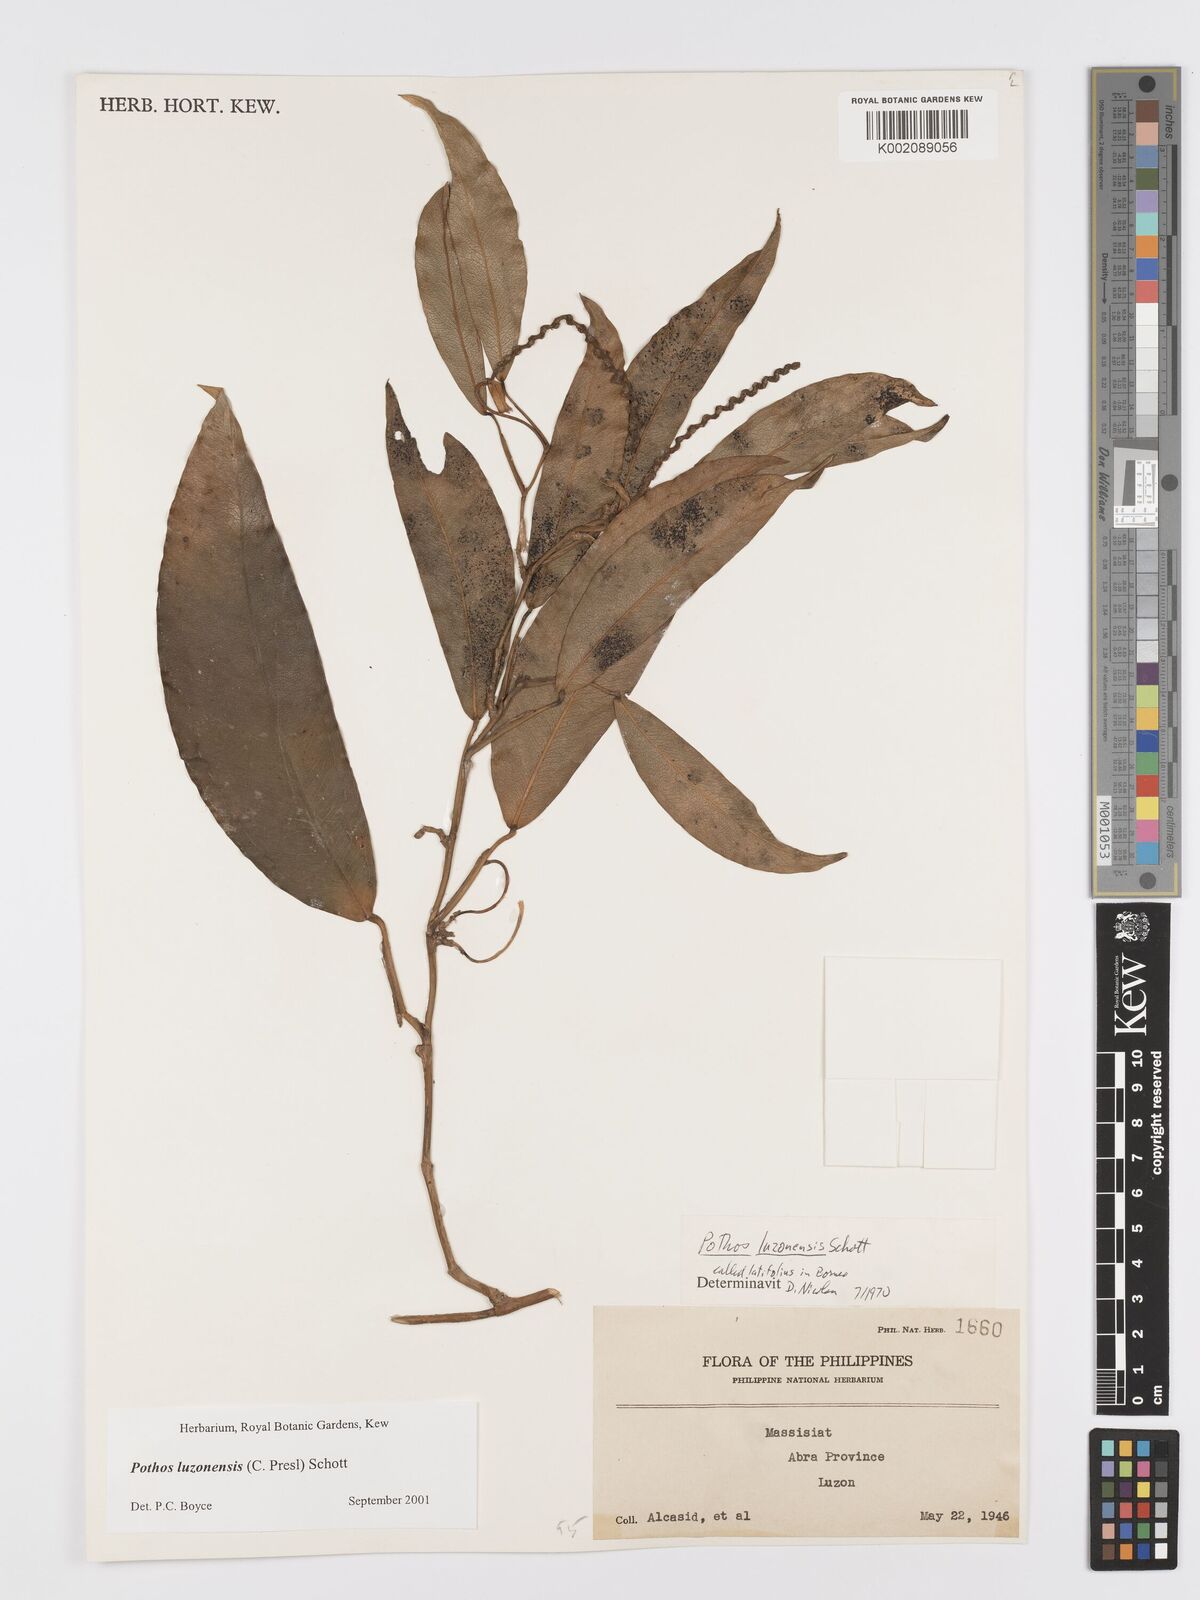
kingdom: Plantae
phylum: Tracheophyta
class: Liliopsida
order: Alismatales
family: Araceae
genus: Pothos
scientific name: Pothos luzonensis
